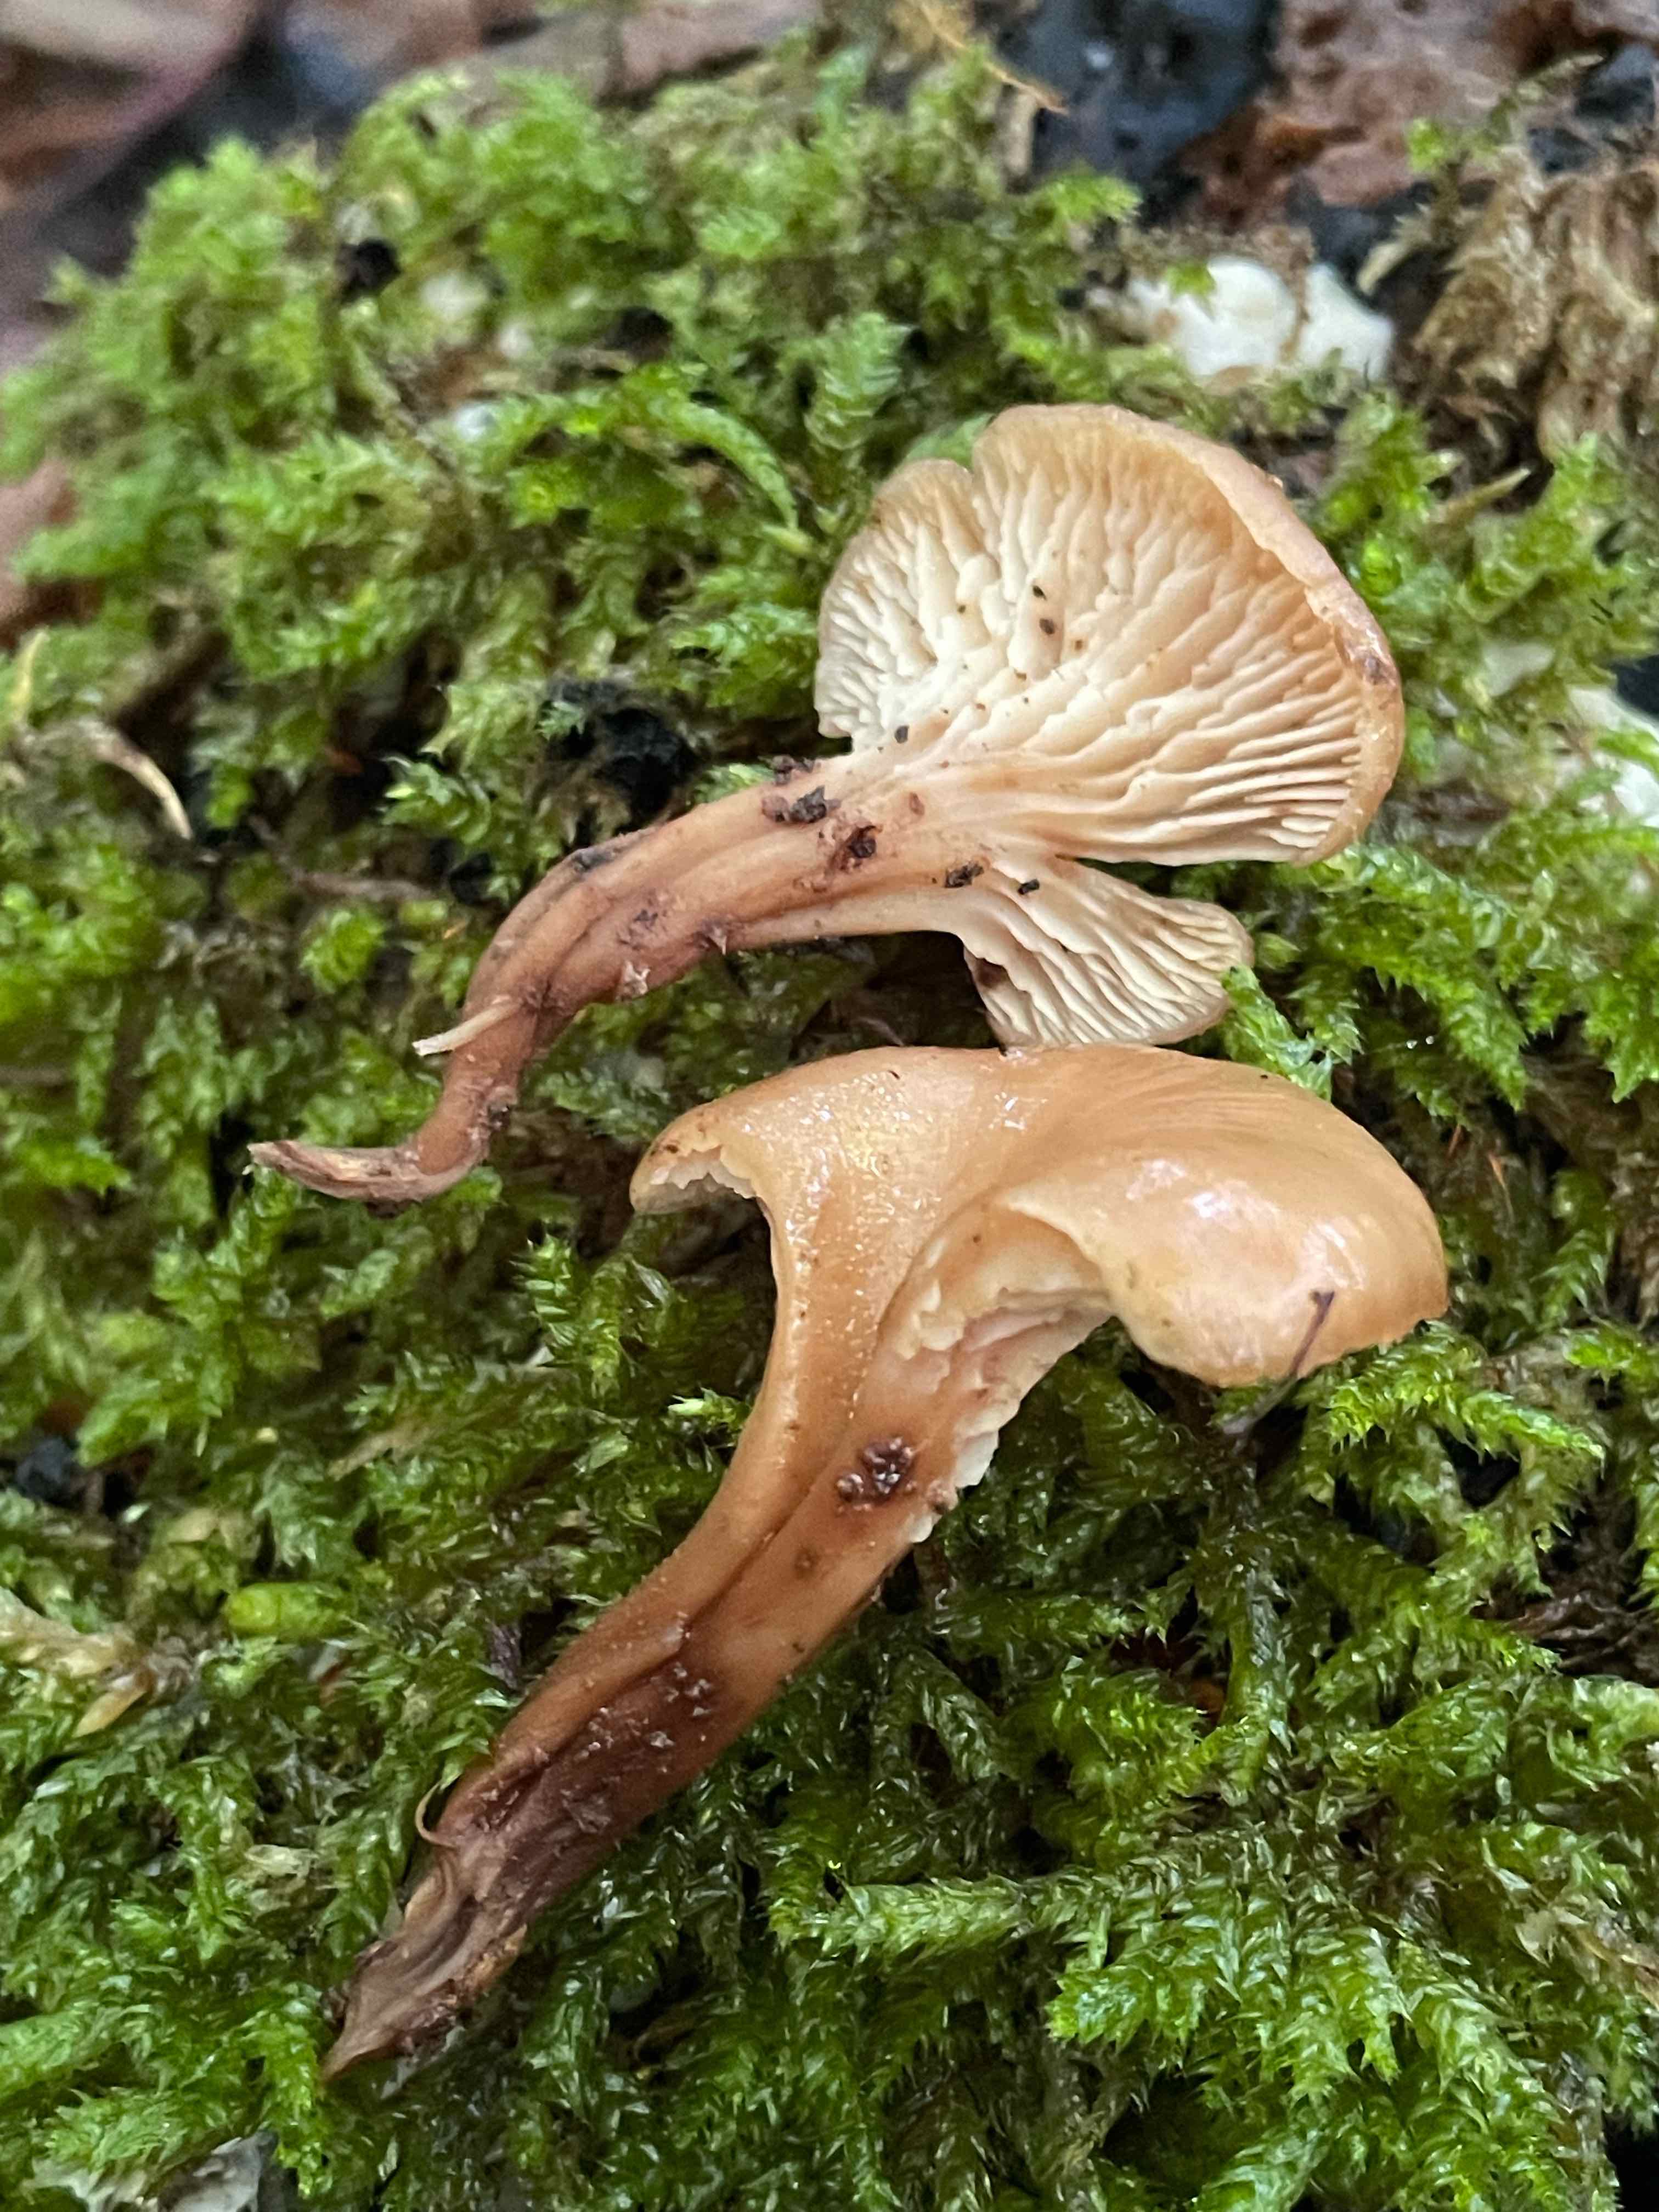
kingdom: Fungi
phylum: Basidiomycota
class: Agaricomycetes
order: Russulales
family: Auriscalpiaceae
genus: Lentinellus
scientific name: Lentinellus cochleatus
